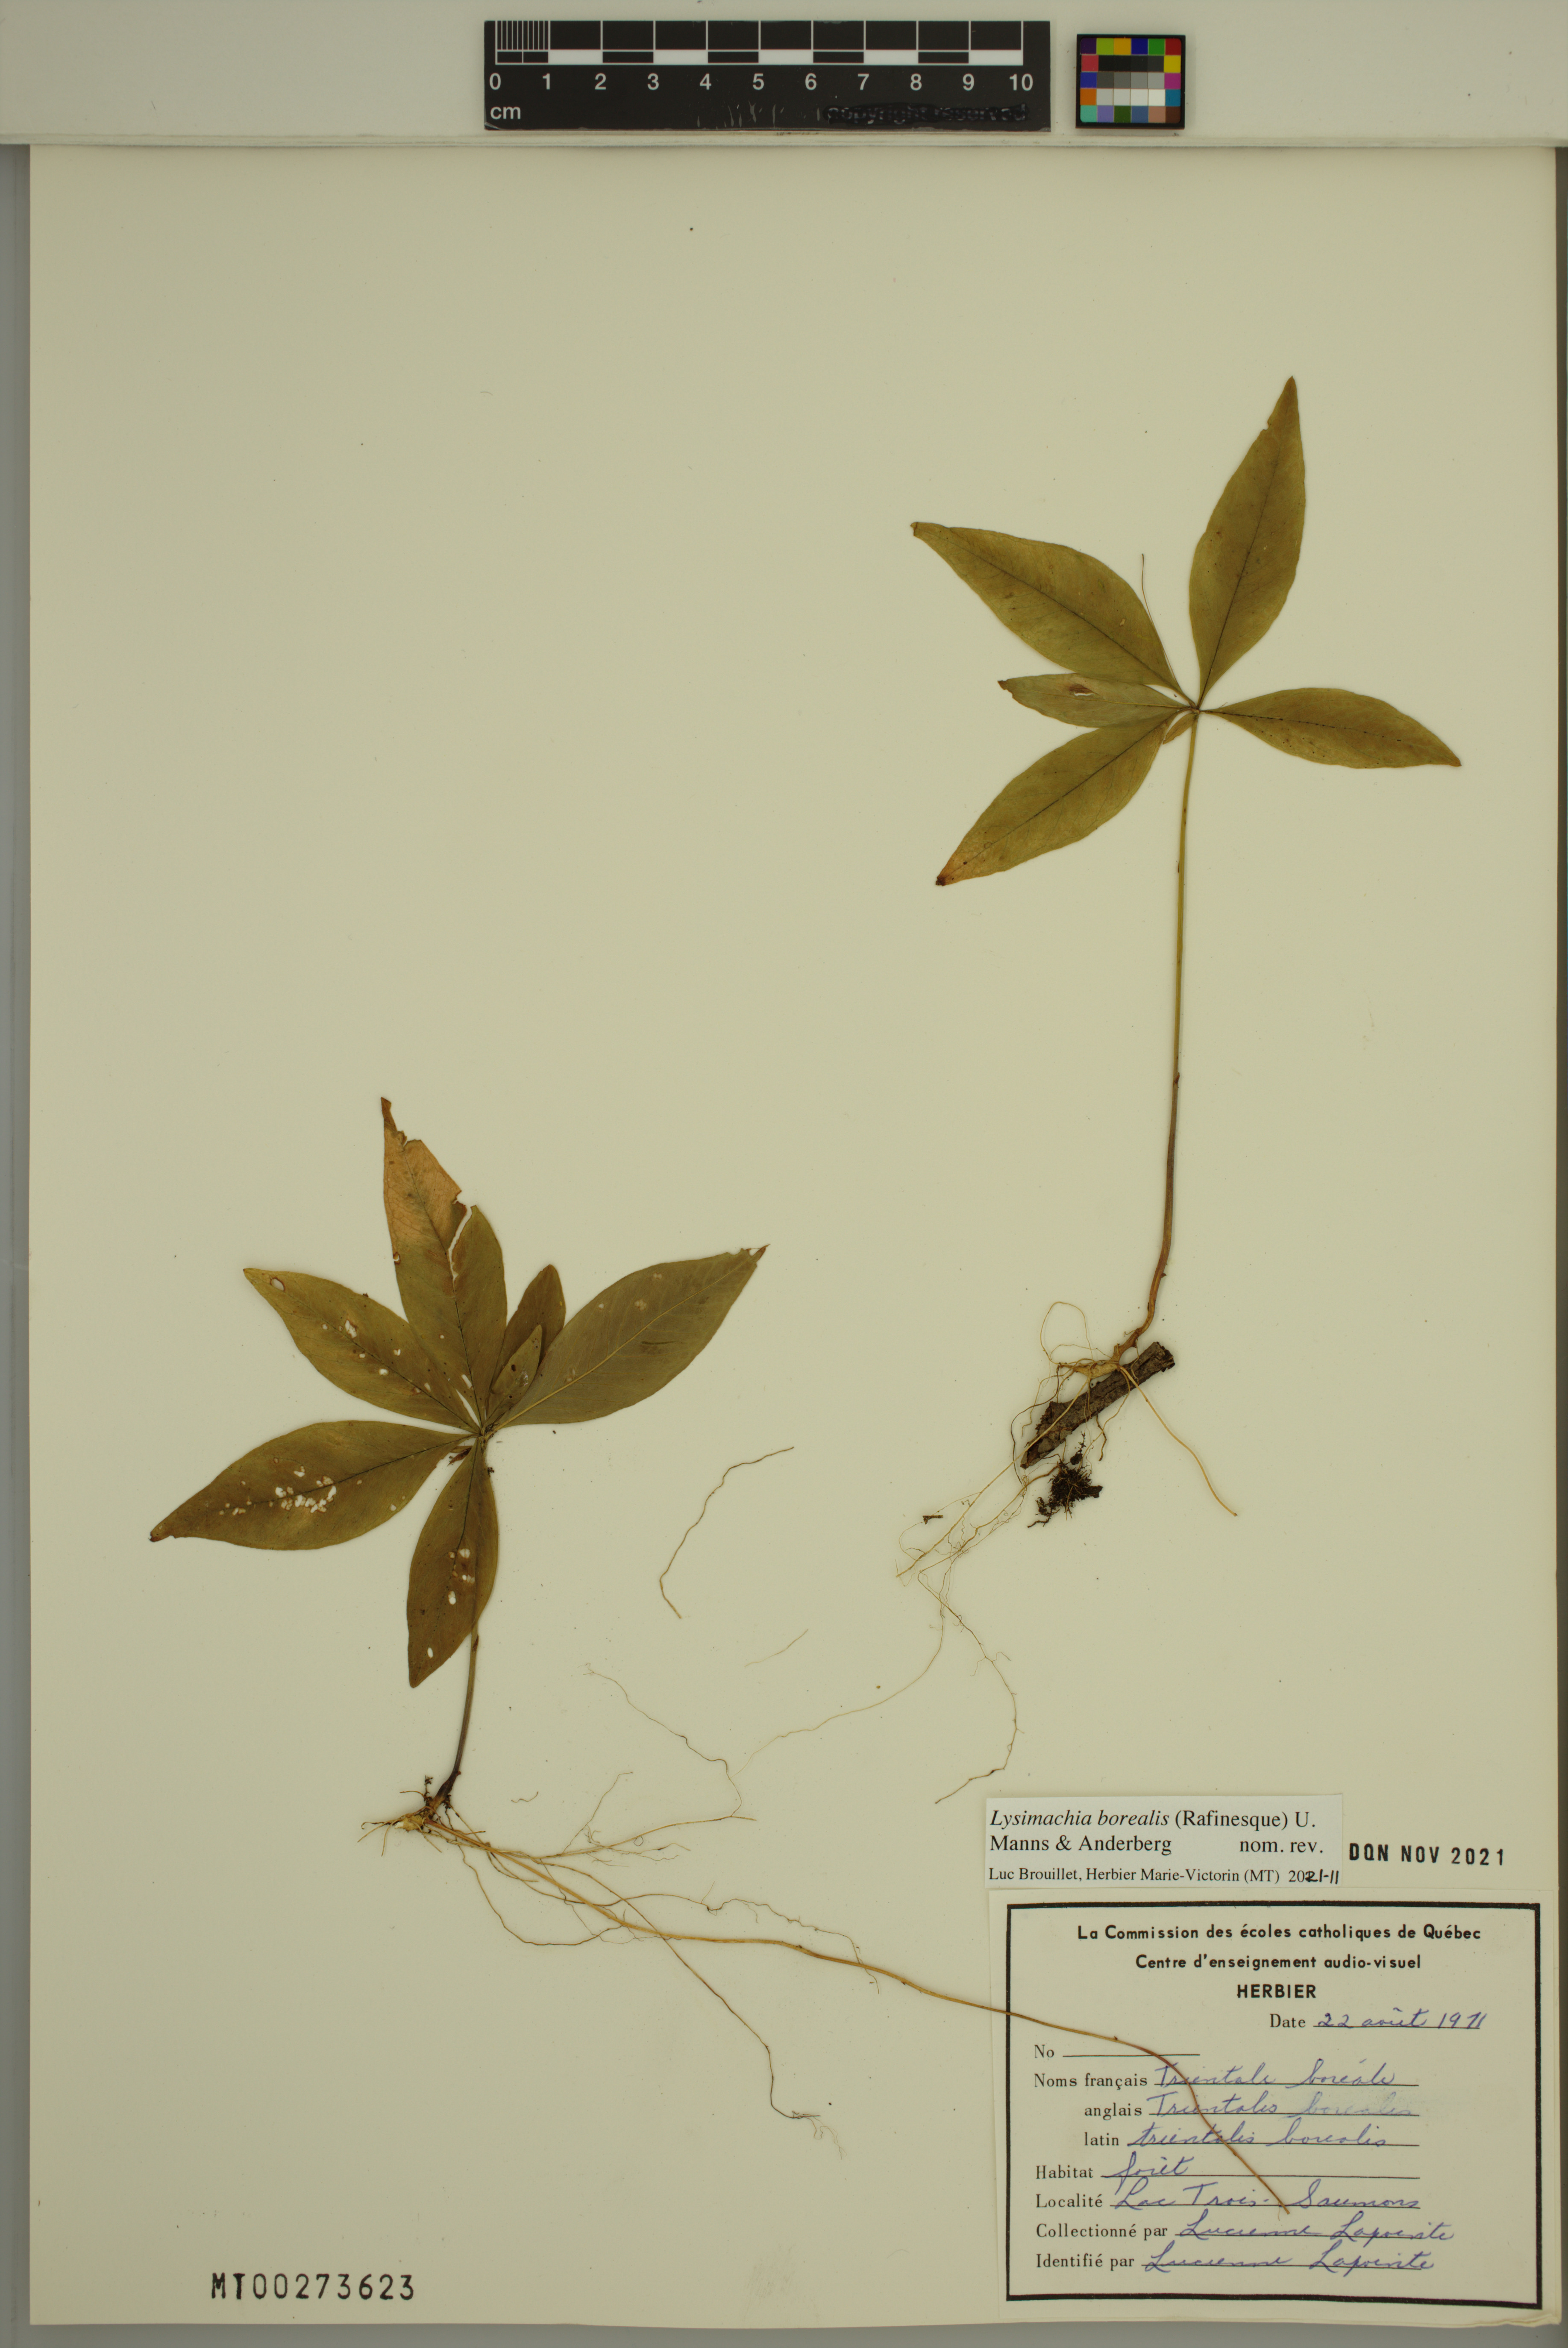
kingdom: Plantae
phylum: Tracheophyta
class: Magnoliopsida
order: Ericales
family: Primulaceae
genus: Lysimachia
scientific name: Lysimachia borealis
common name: American starflower
